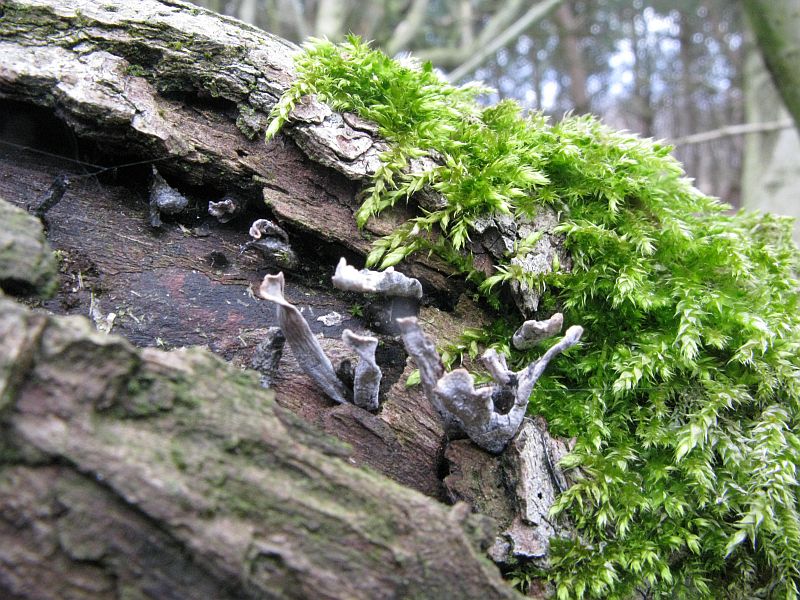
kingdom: Fungi
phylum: Ascomycota
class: Sordariomycetes
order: Xylariales
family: Xylariaceae
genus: Xylaria
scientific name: Xylaria hypoxylon
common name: grenet stødsvamp
